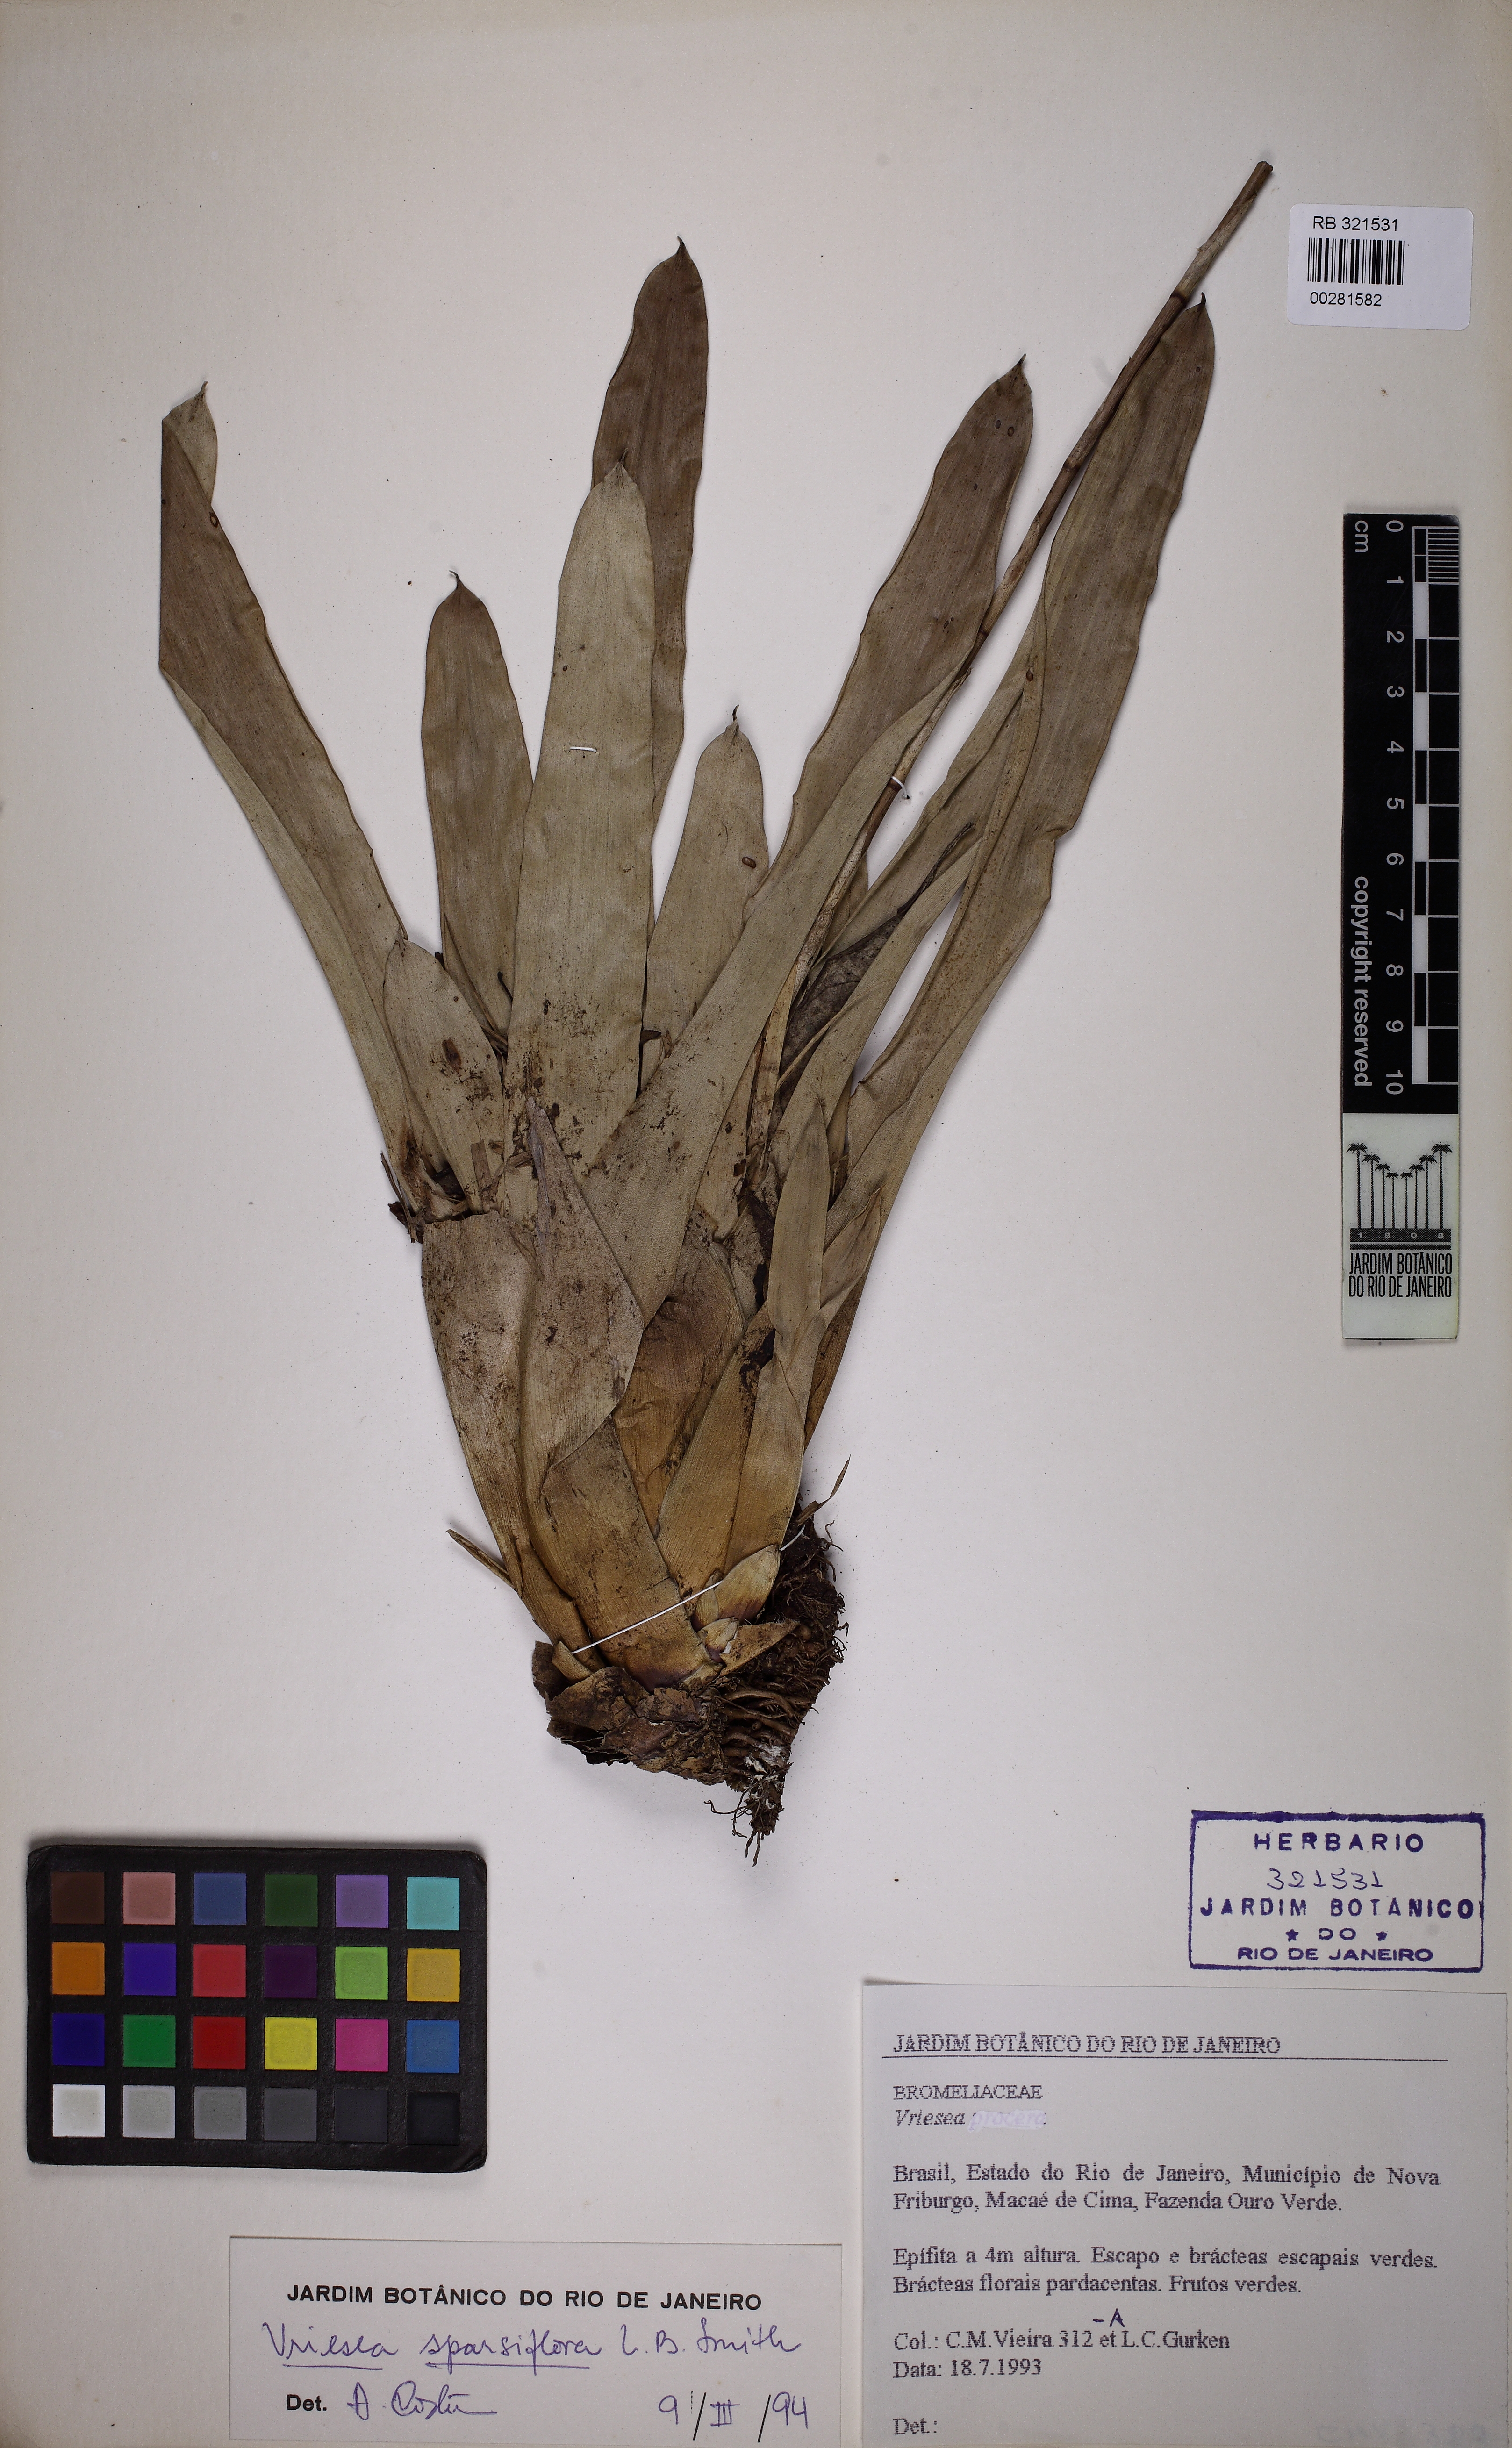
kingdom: Plantae
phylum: Tracheophyta
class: Liliopsida
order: Poales
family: Bromeliaceae
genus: Vriesea
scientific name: Vriesea sparsiflora
